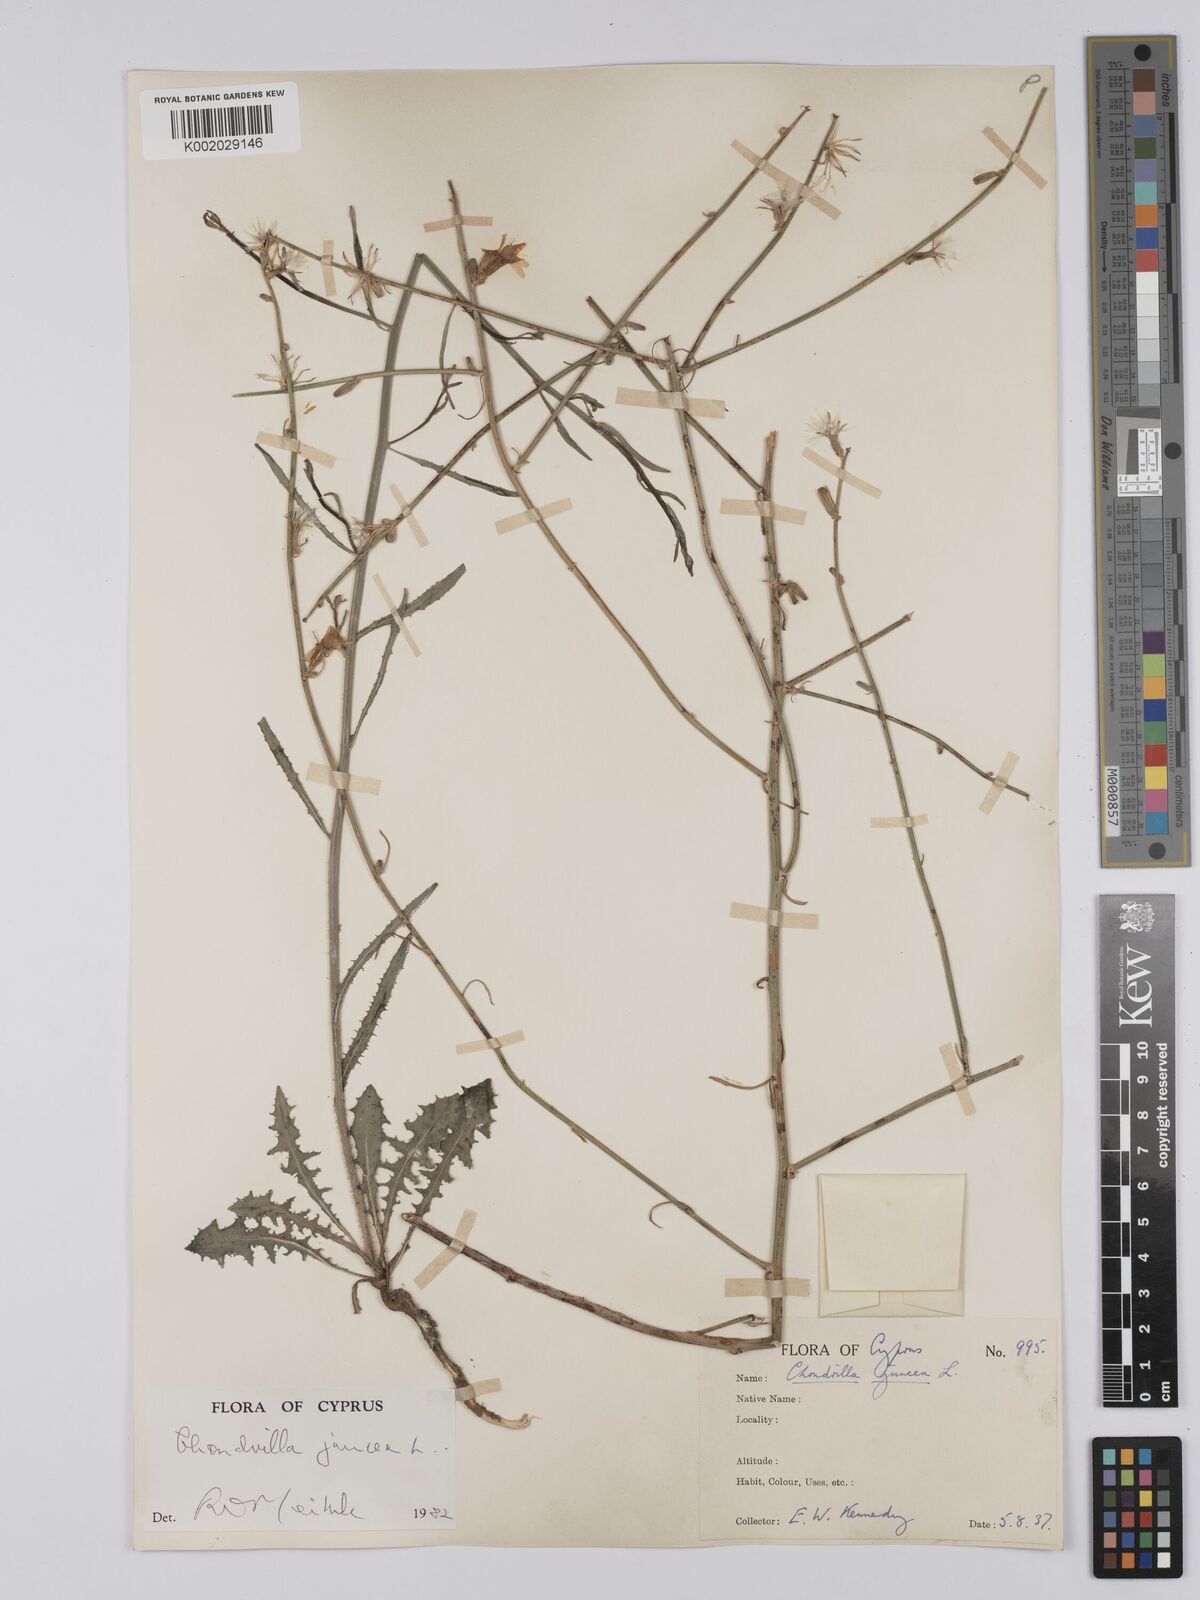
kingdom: Plantae
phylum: Tracheophyta
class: Magnoliopsida
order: Asterales
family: Asteraceae
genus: Chondrilla
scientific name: Chondrilla juncea
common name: Skeleton weed
